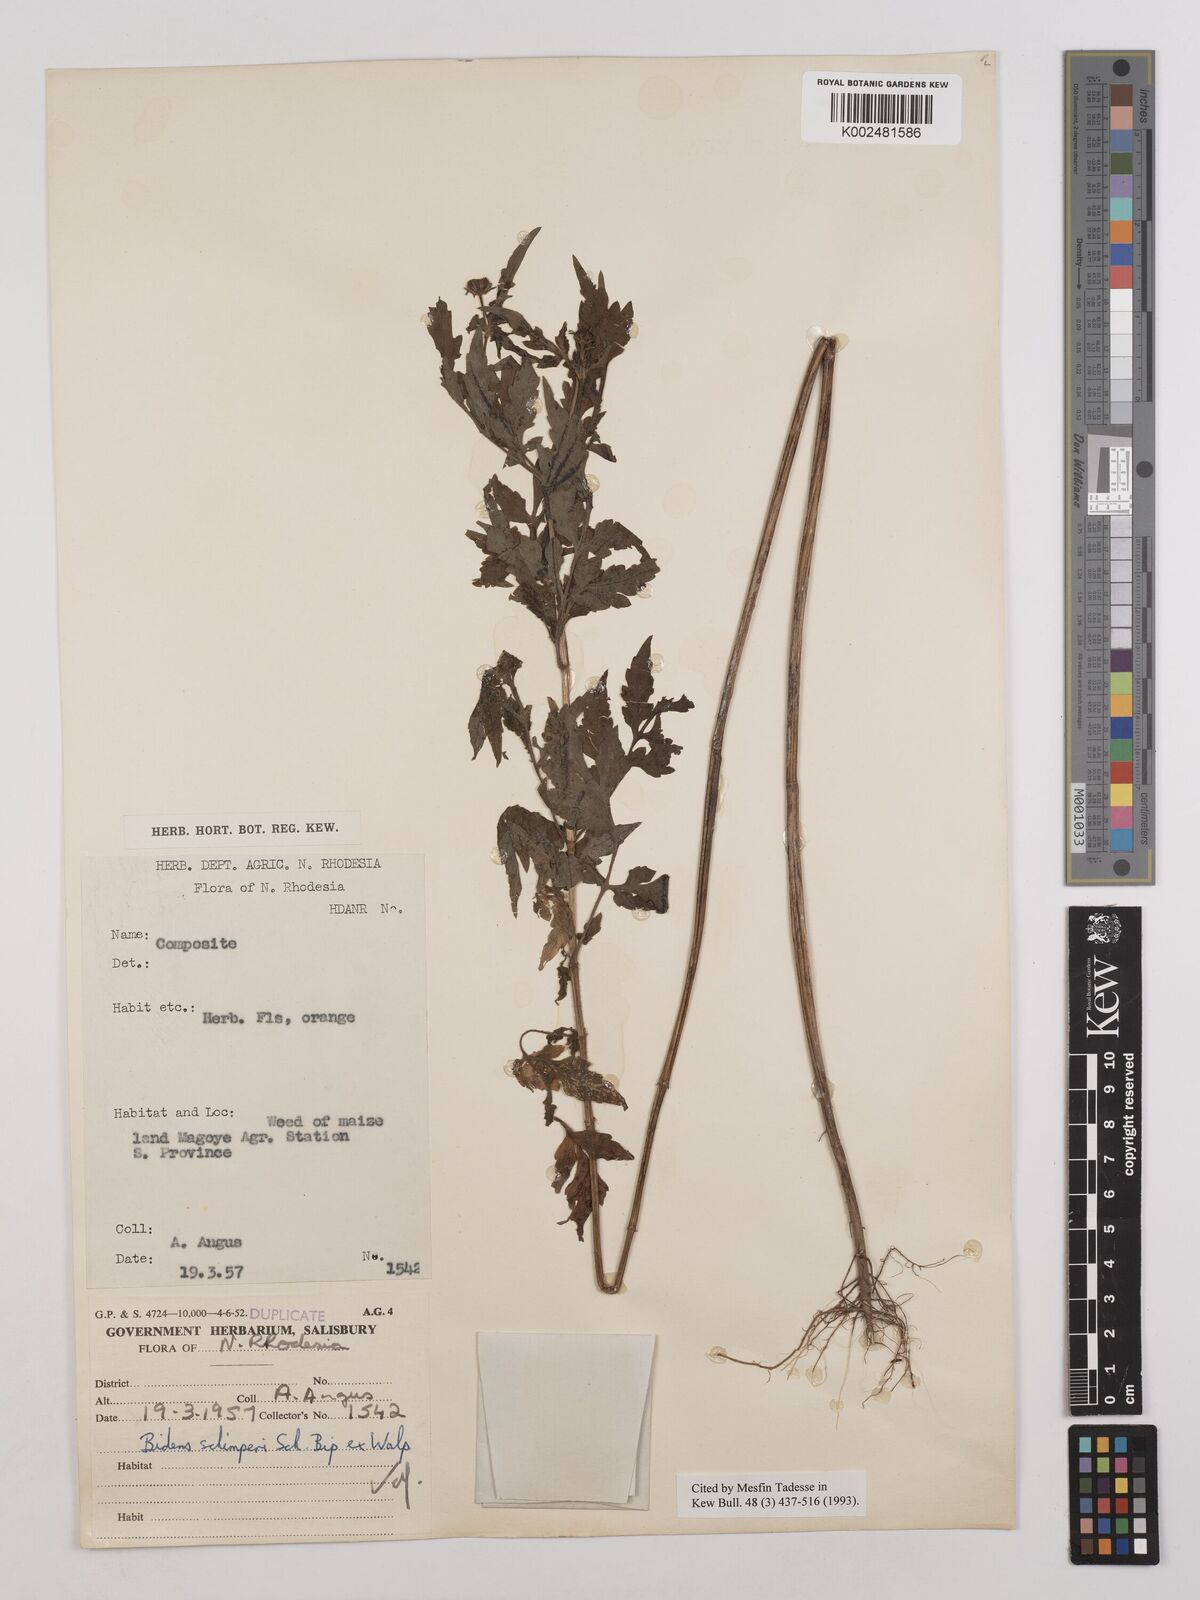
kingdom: Plantae
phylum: Tracheophyta
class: Magnoliopsida
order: Asterales
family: Asteraceae
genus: Bidens
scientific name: Bidens schimperi
